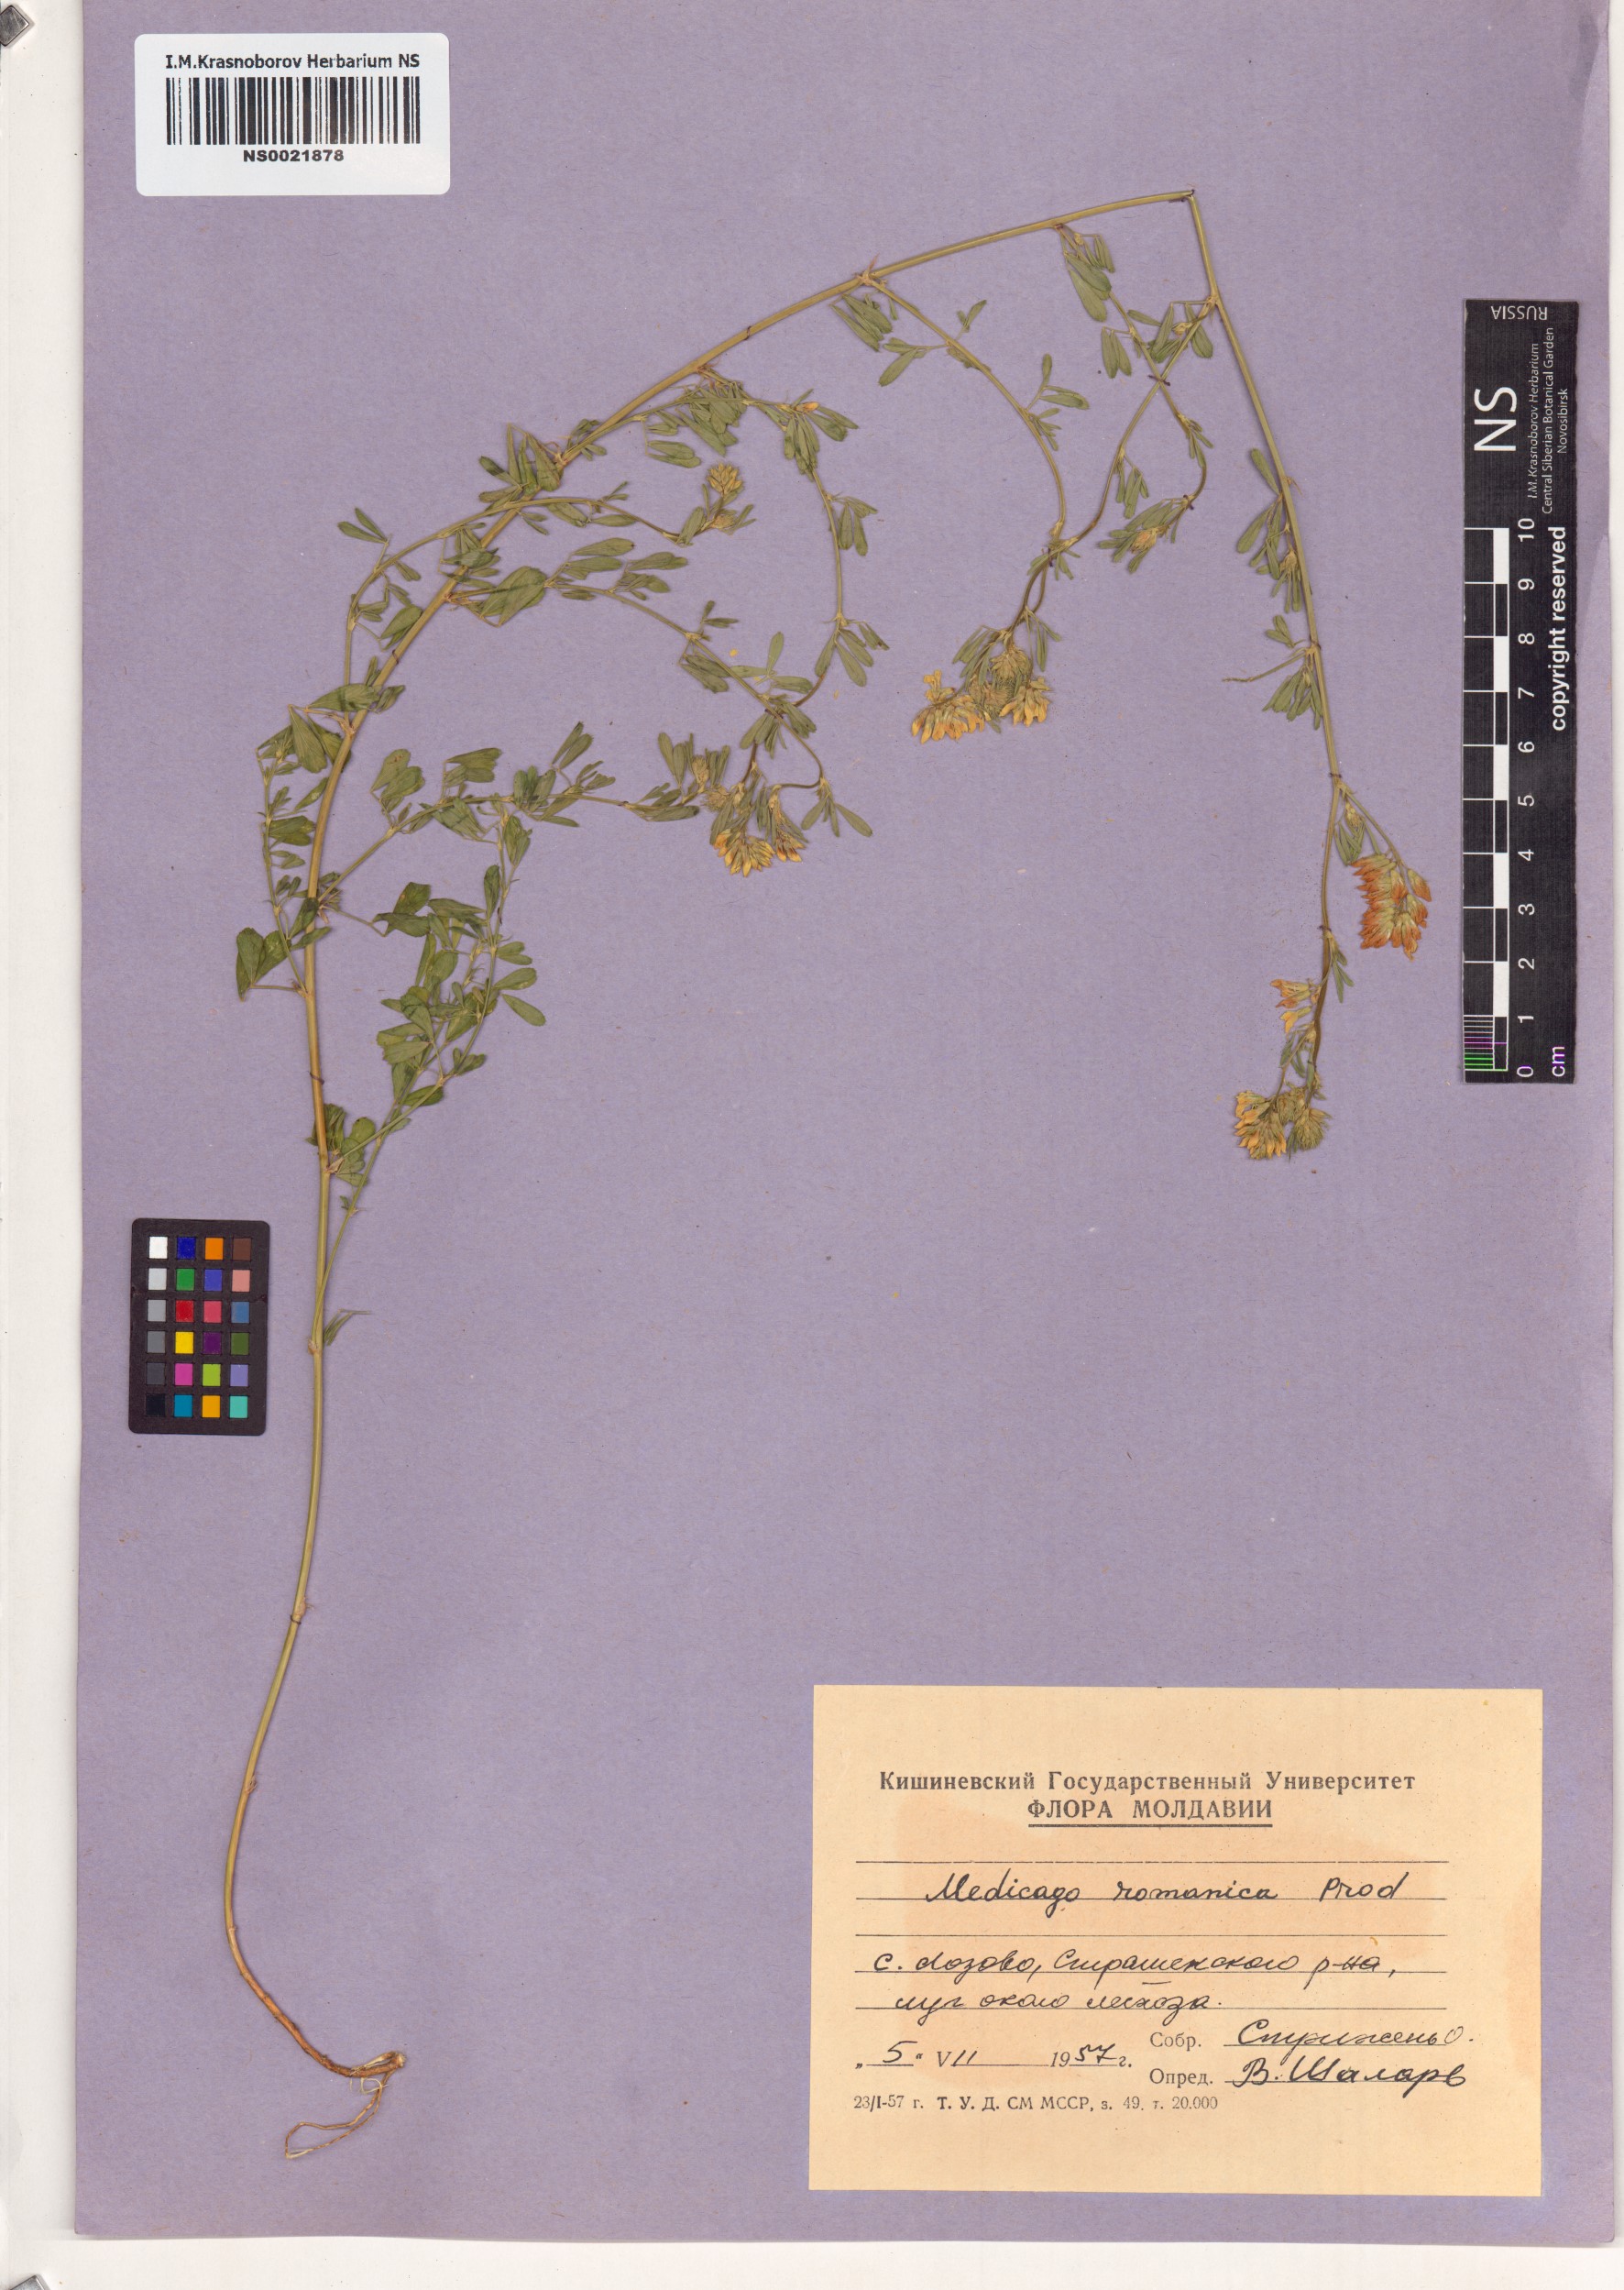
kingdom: Plantae
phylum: Tracheophyta
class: Magnoliopsida
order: Fabales
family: Fabaceae
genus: Medicago
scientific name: Medicago falcata
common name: Sickle medick
